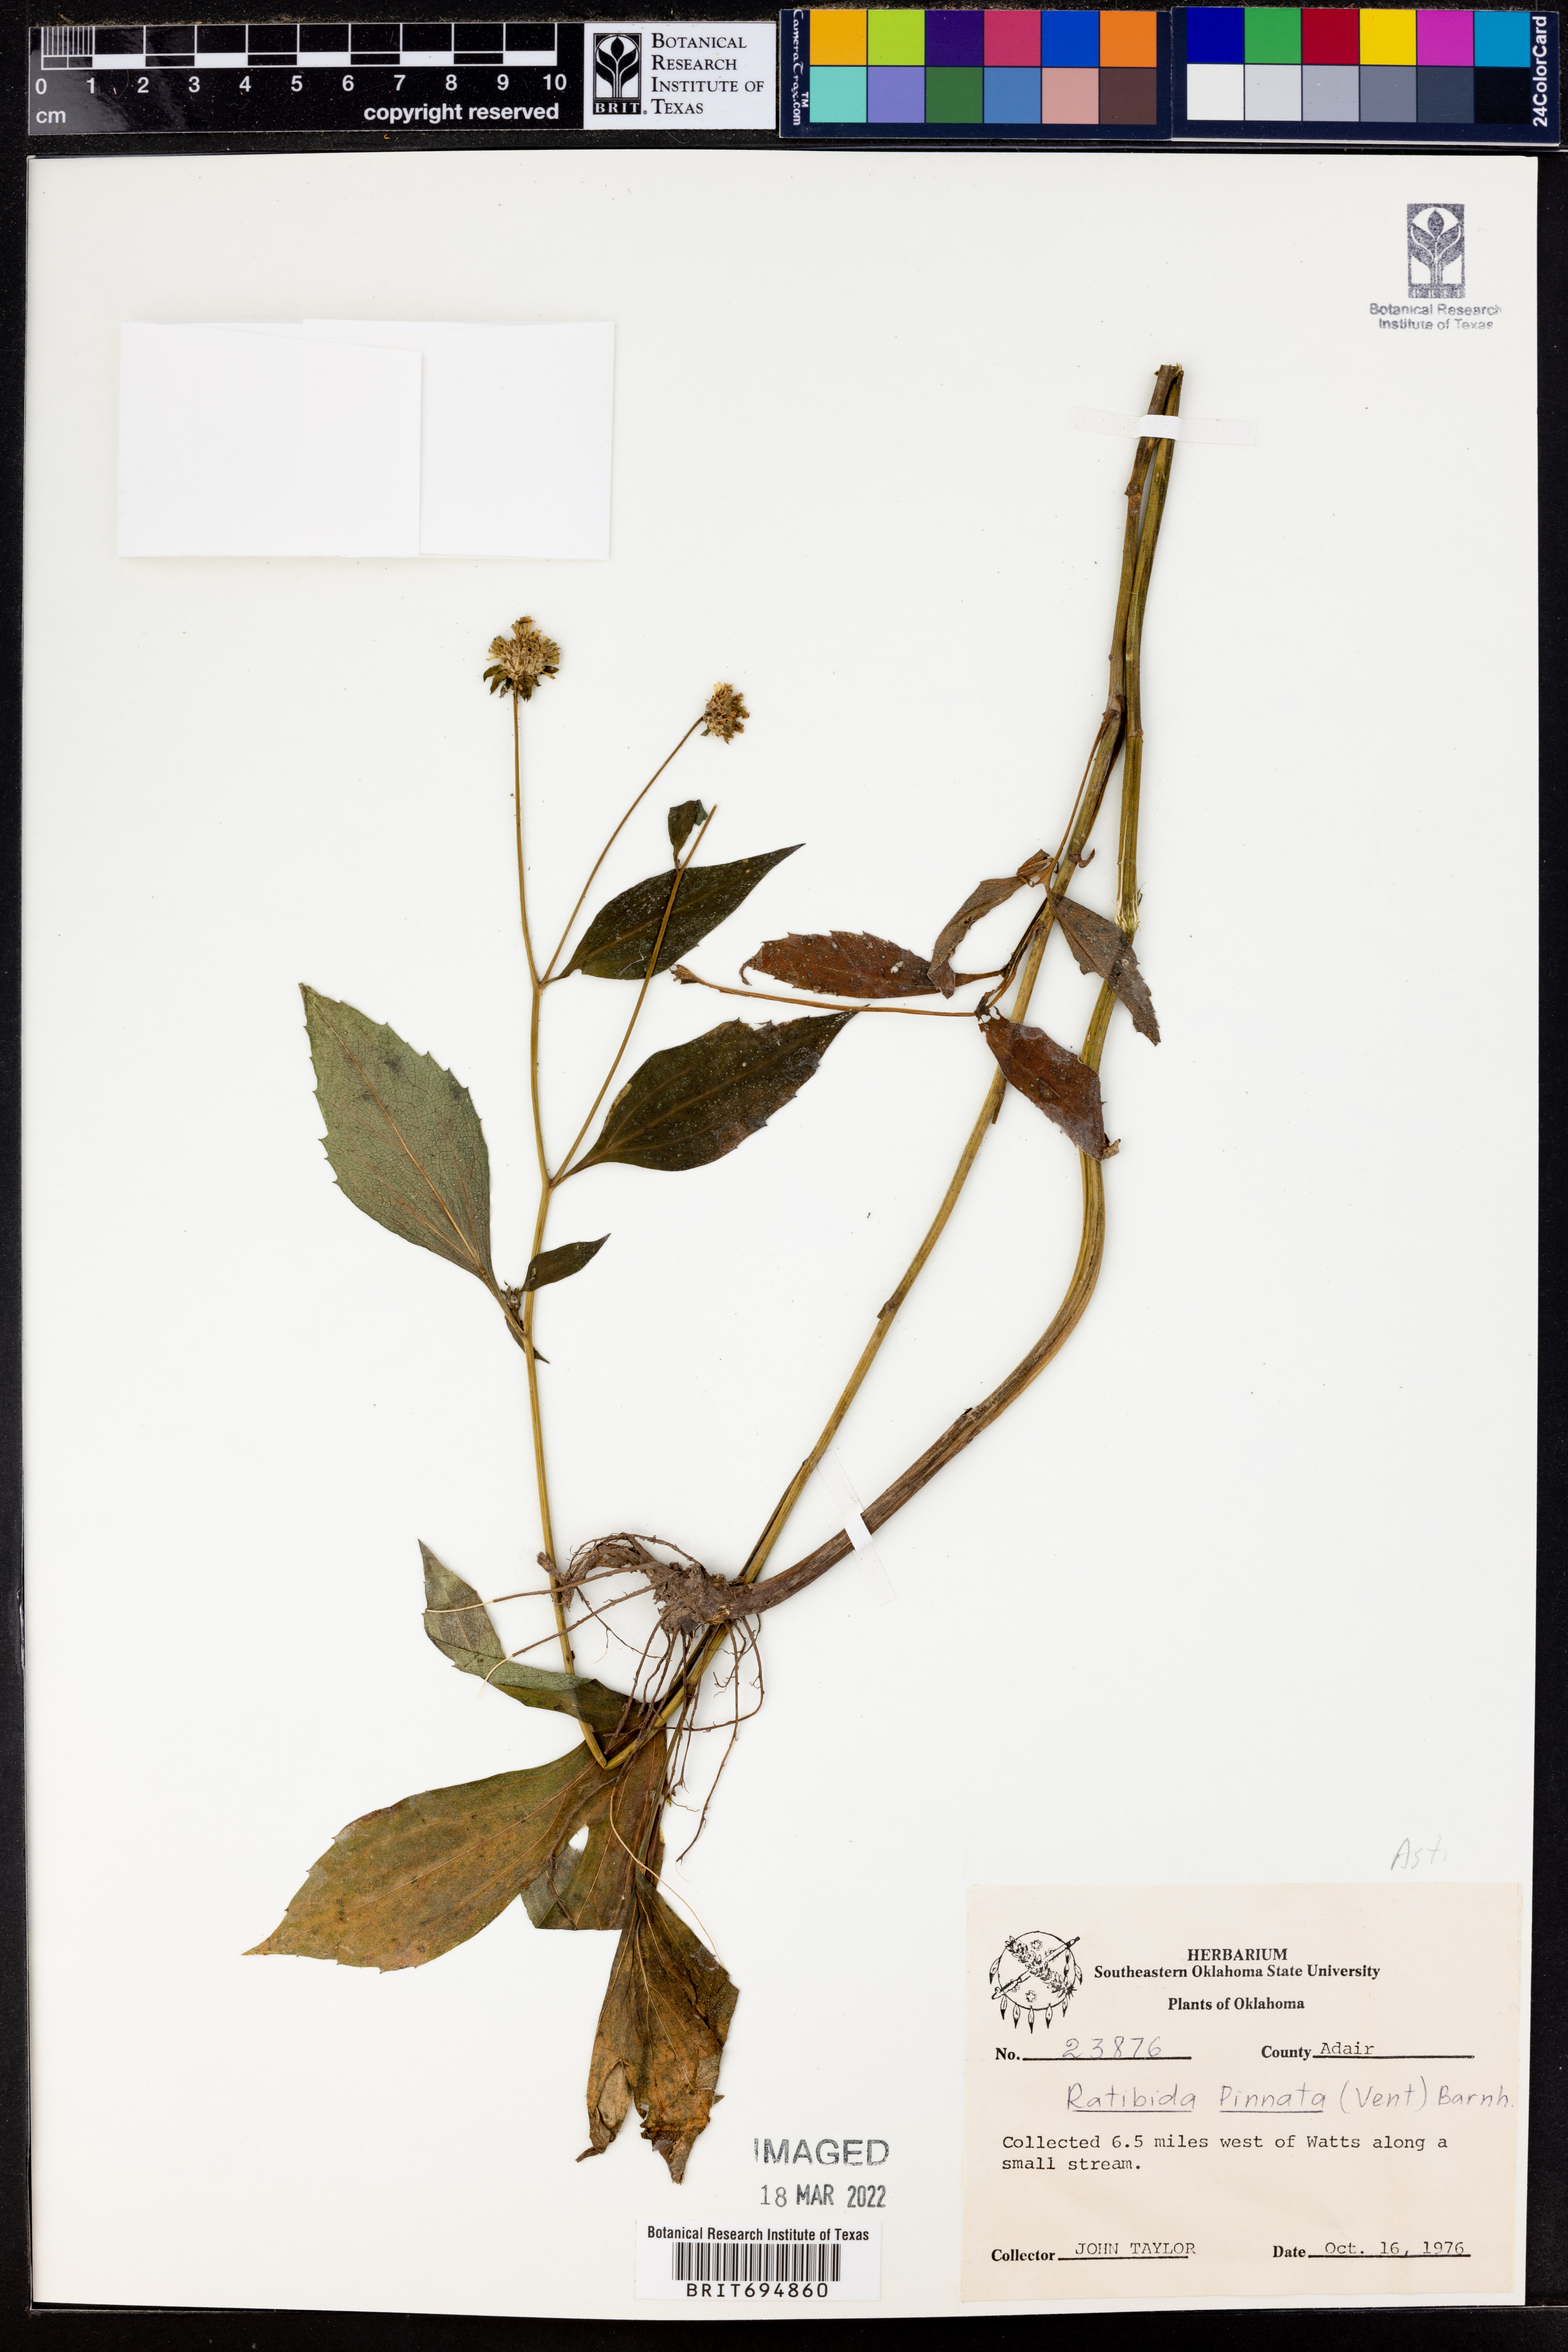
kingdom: Plantae
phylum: Tracheophyta
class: Magnoliopsida
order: Asterales
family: Asteraceae
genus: Ratibida
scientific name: Ratibida pinnata
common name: Drooping prairie-coneflower
